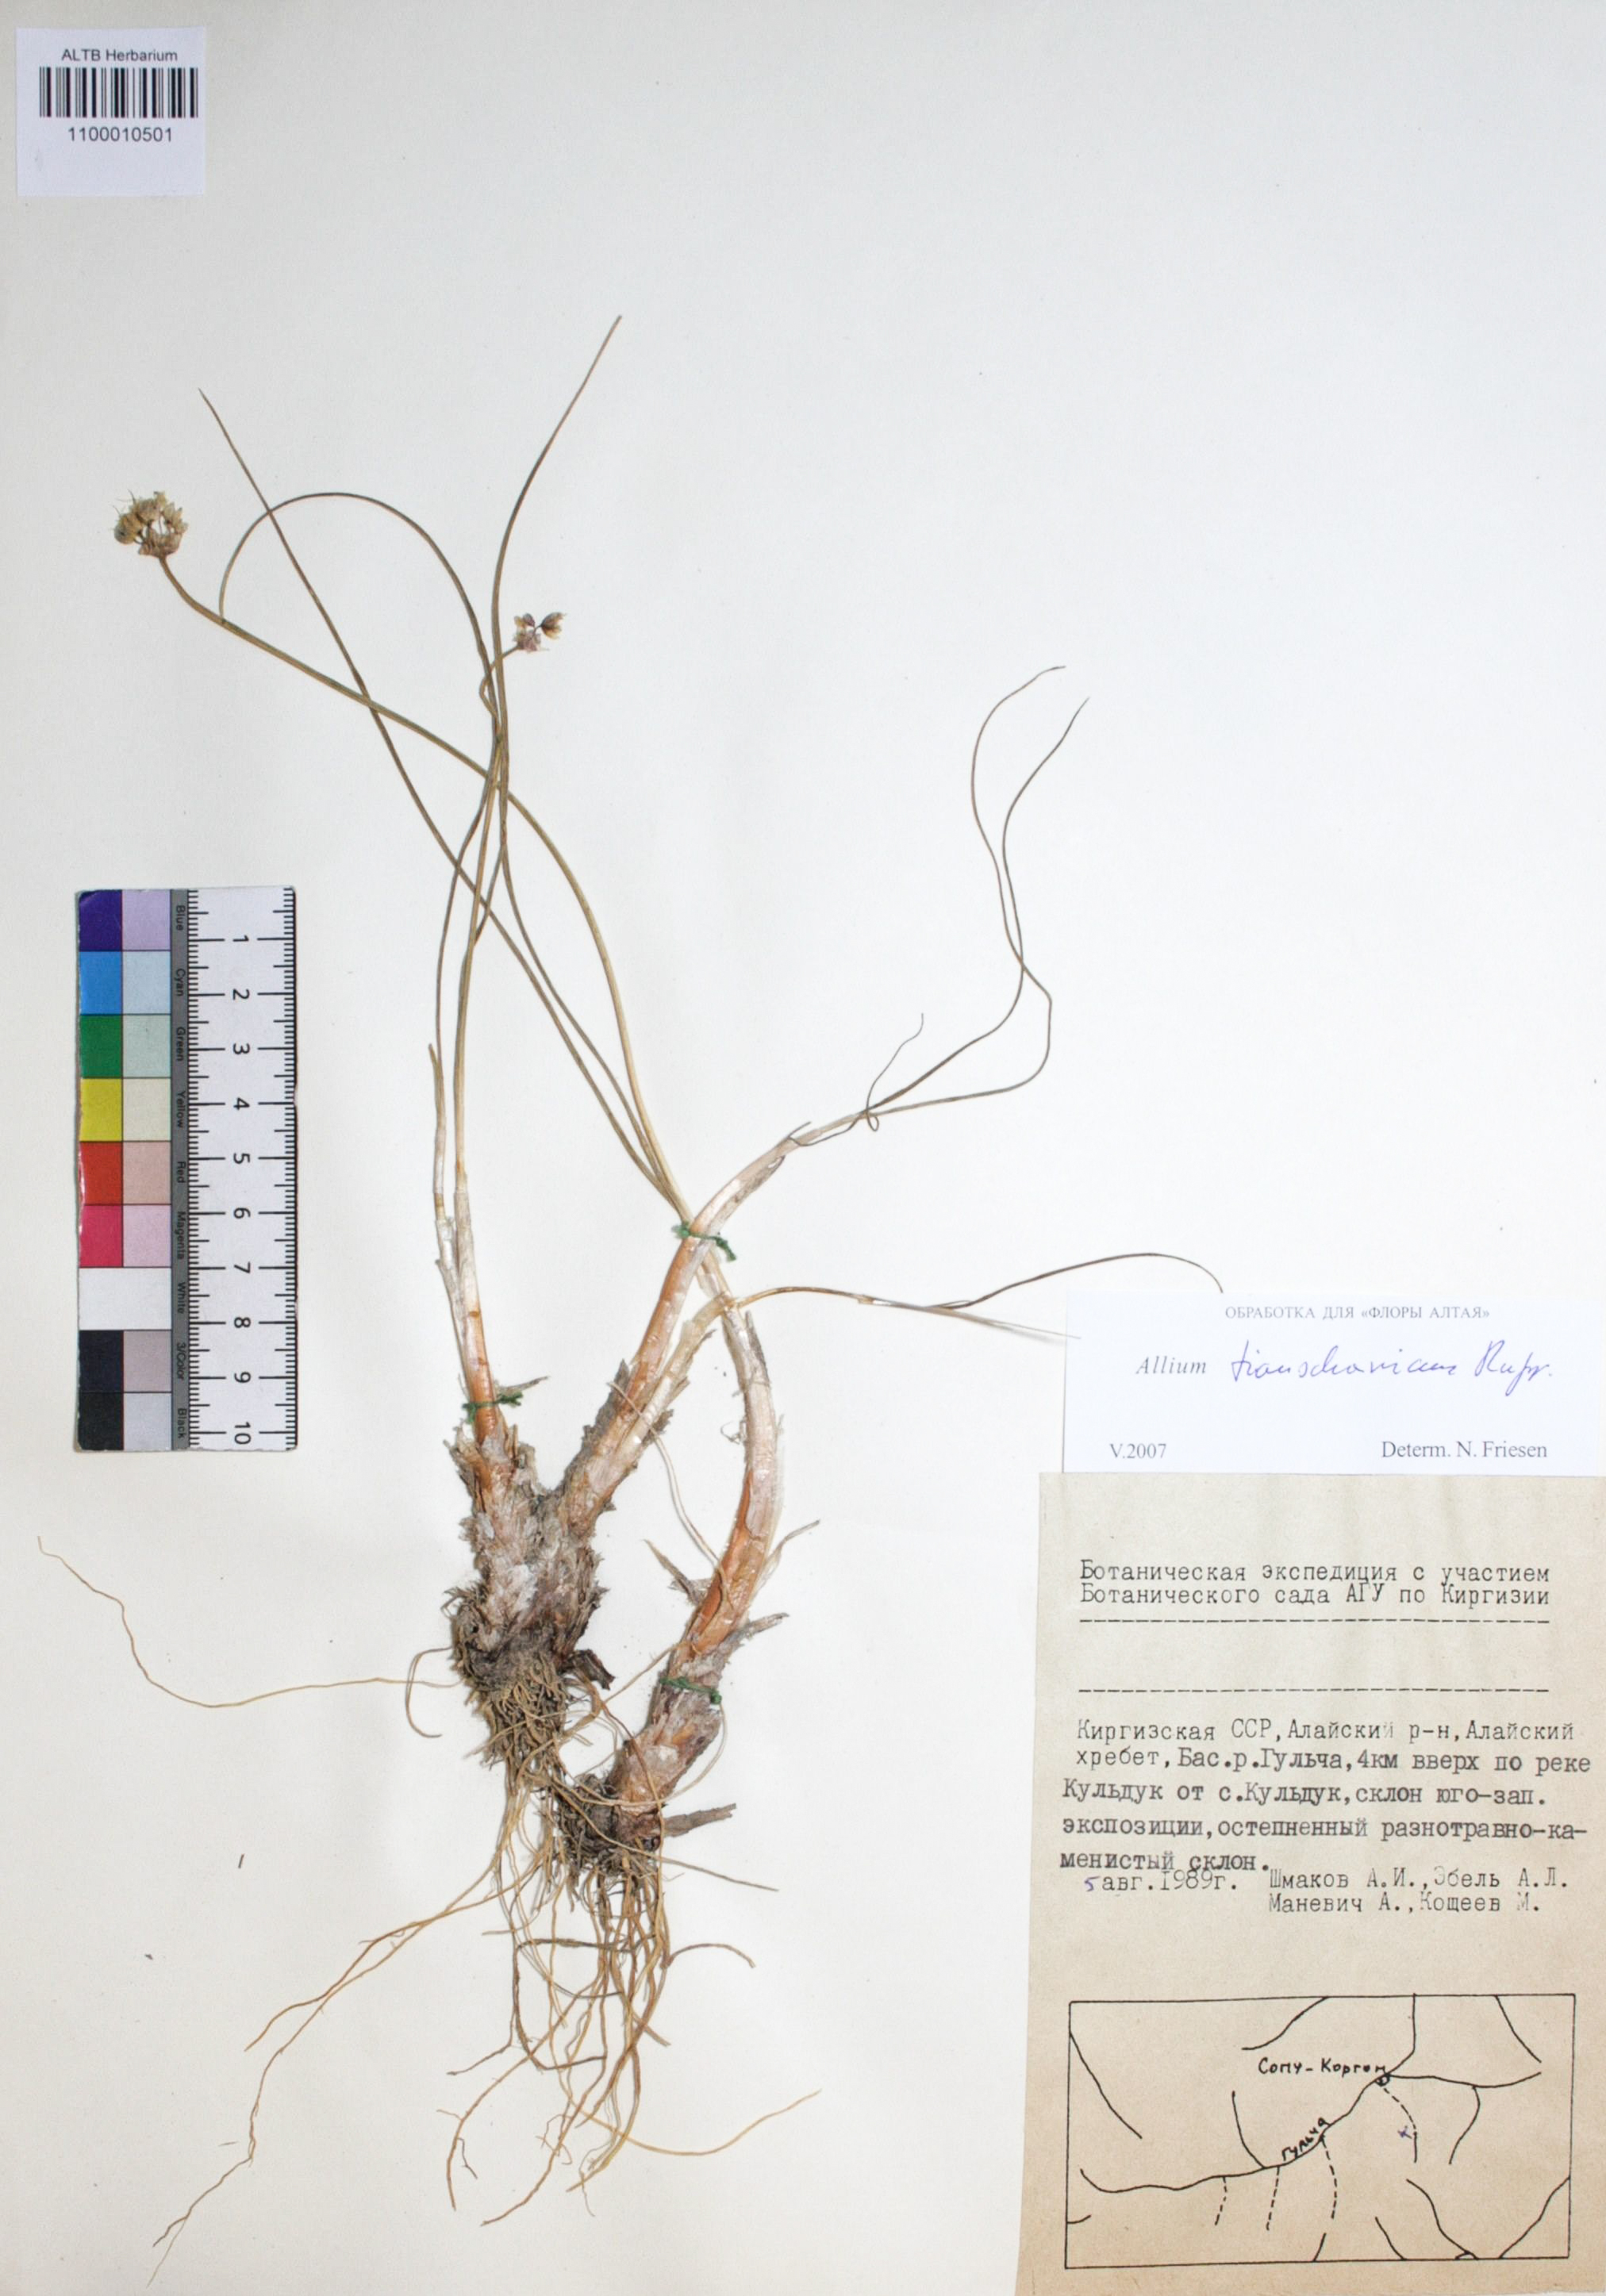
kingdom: Plantae
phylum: Tracheophyta
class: Liliopsida
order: Asparagales
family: Amaryllidaceae
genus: Allium
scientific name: Allium tianschanicum
